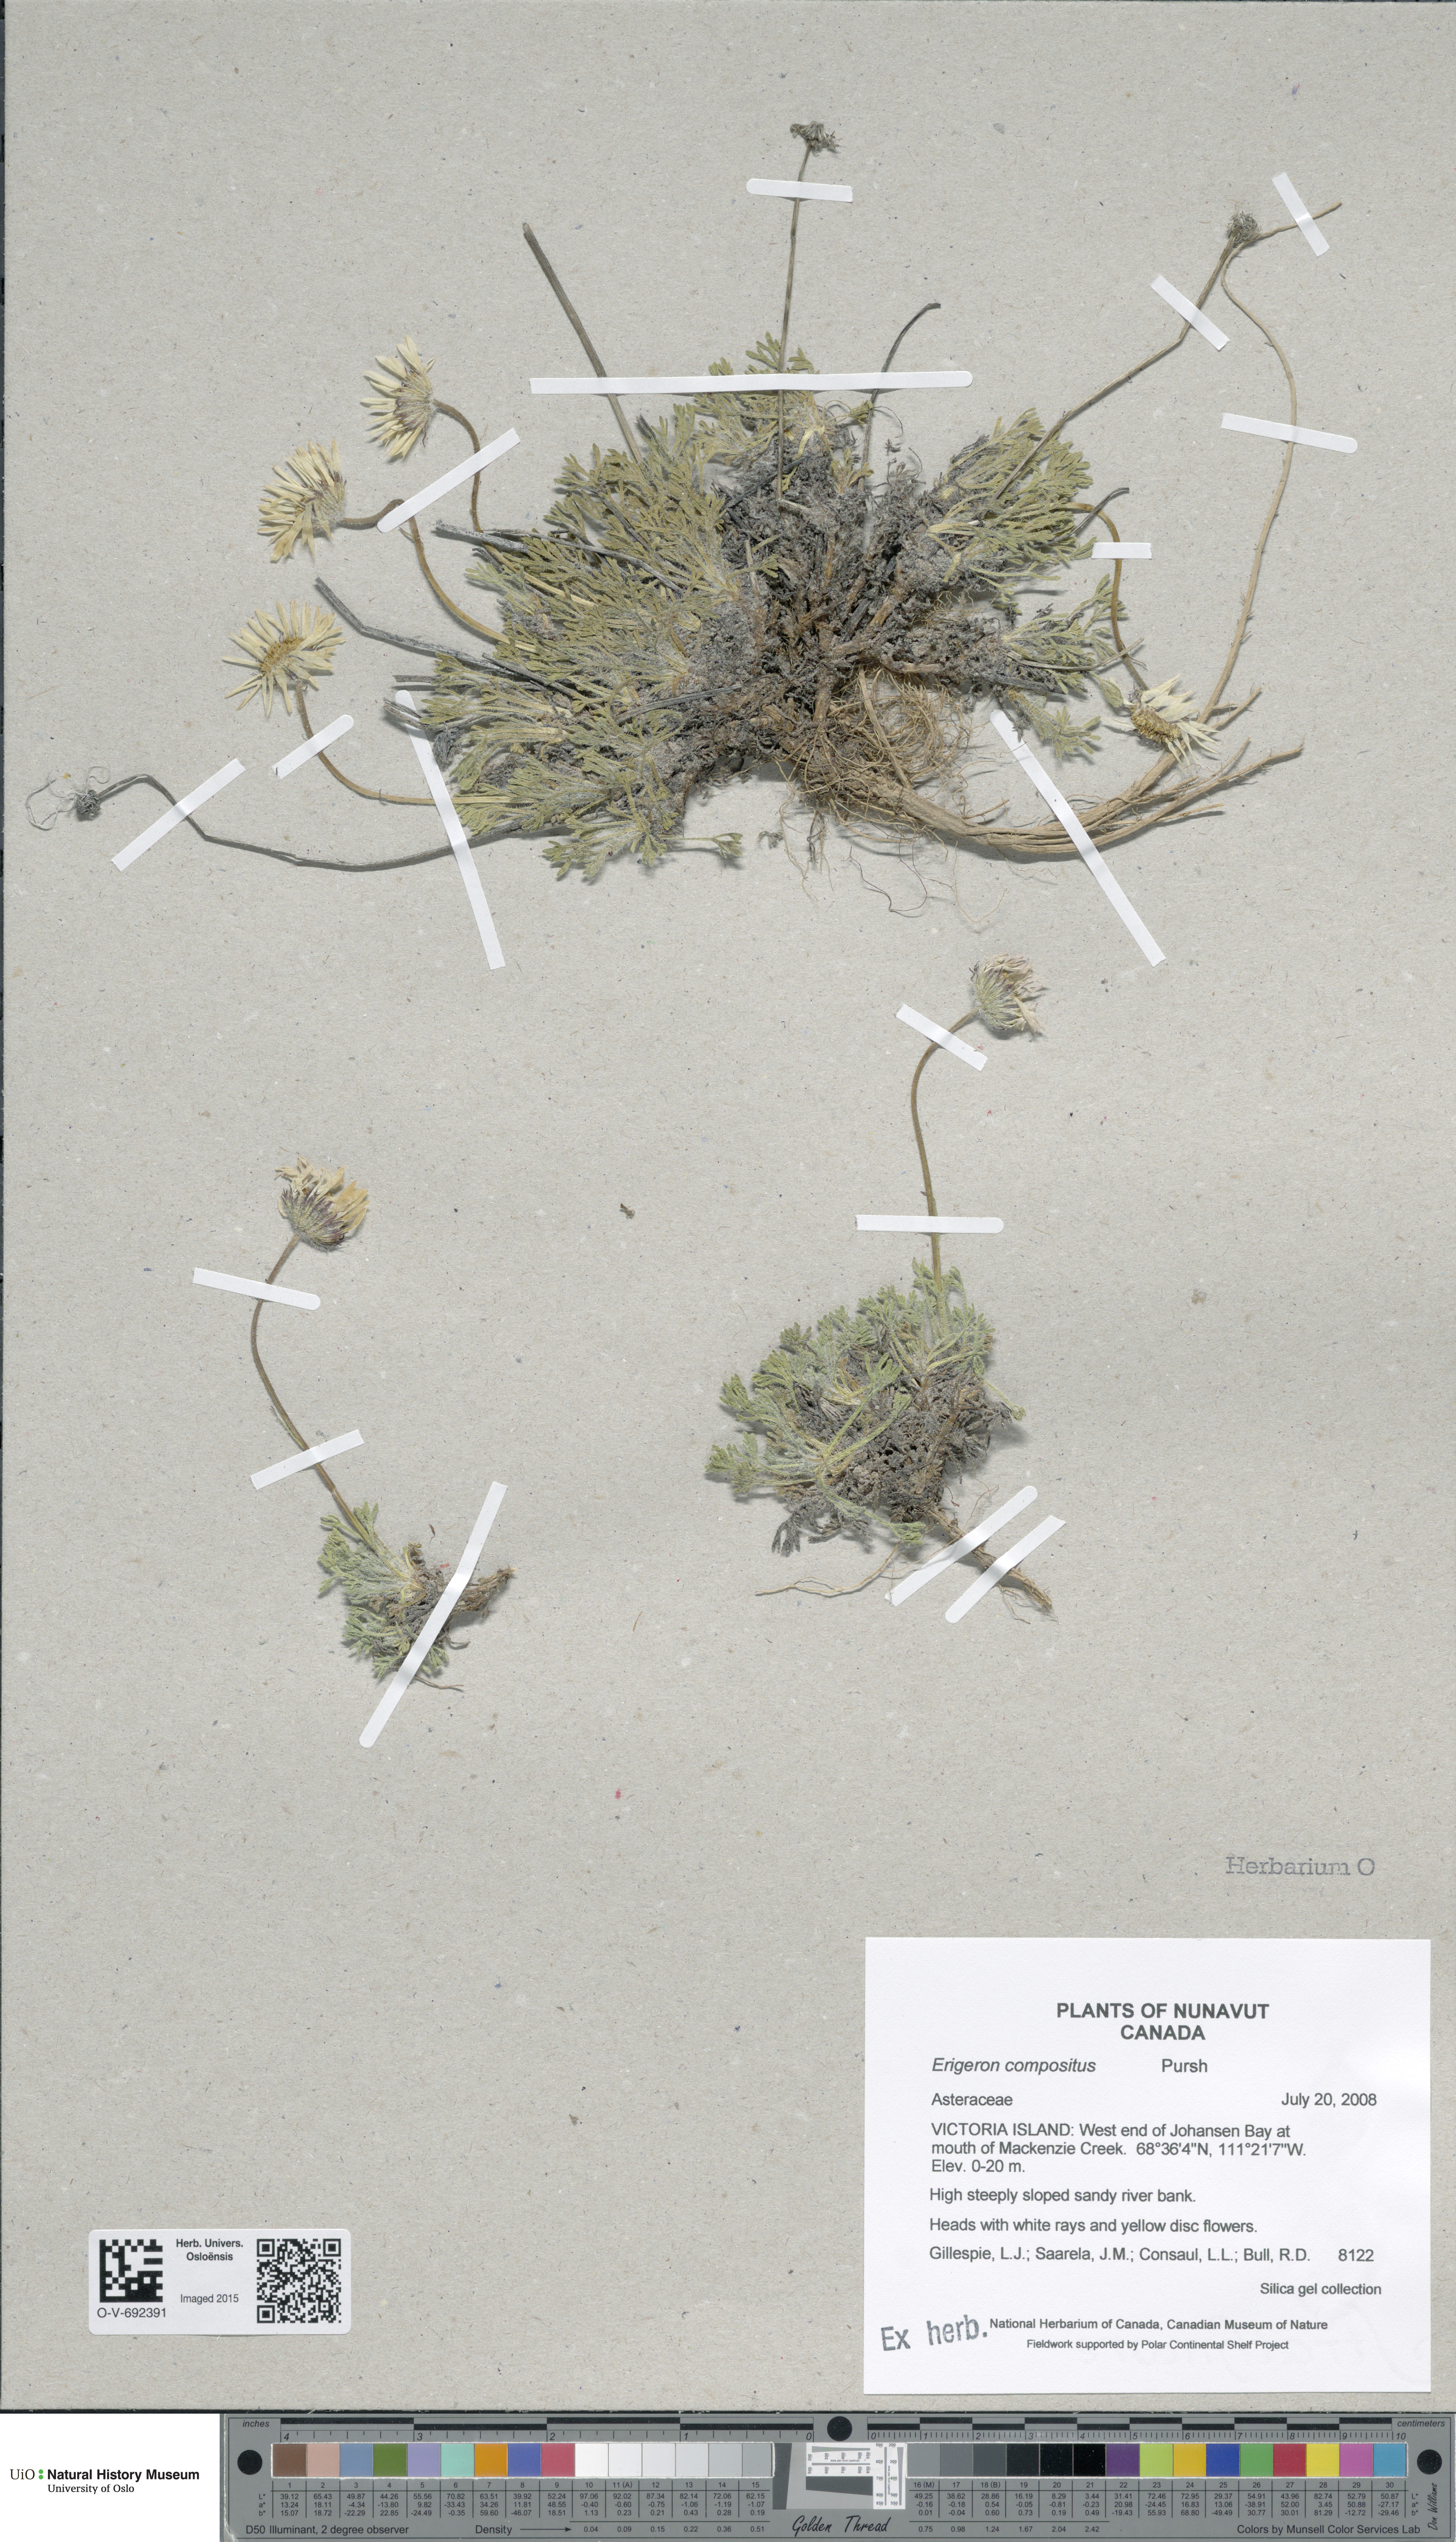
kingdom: Plantae
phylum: Tracheophyta
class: Magnoliopsida
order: Asterales
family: Asteraceae
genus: Erigeron
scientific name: Erigeron compositus
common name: Dwarf mountain fleabane
